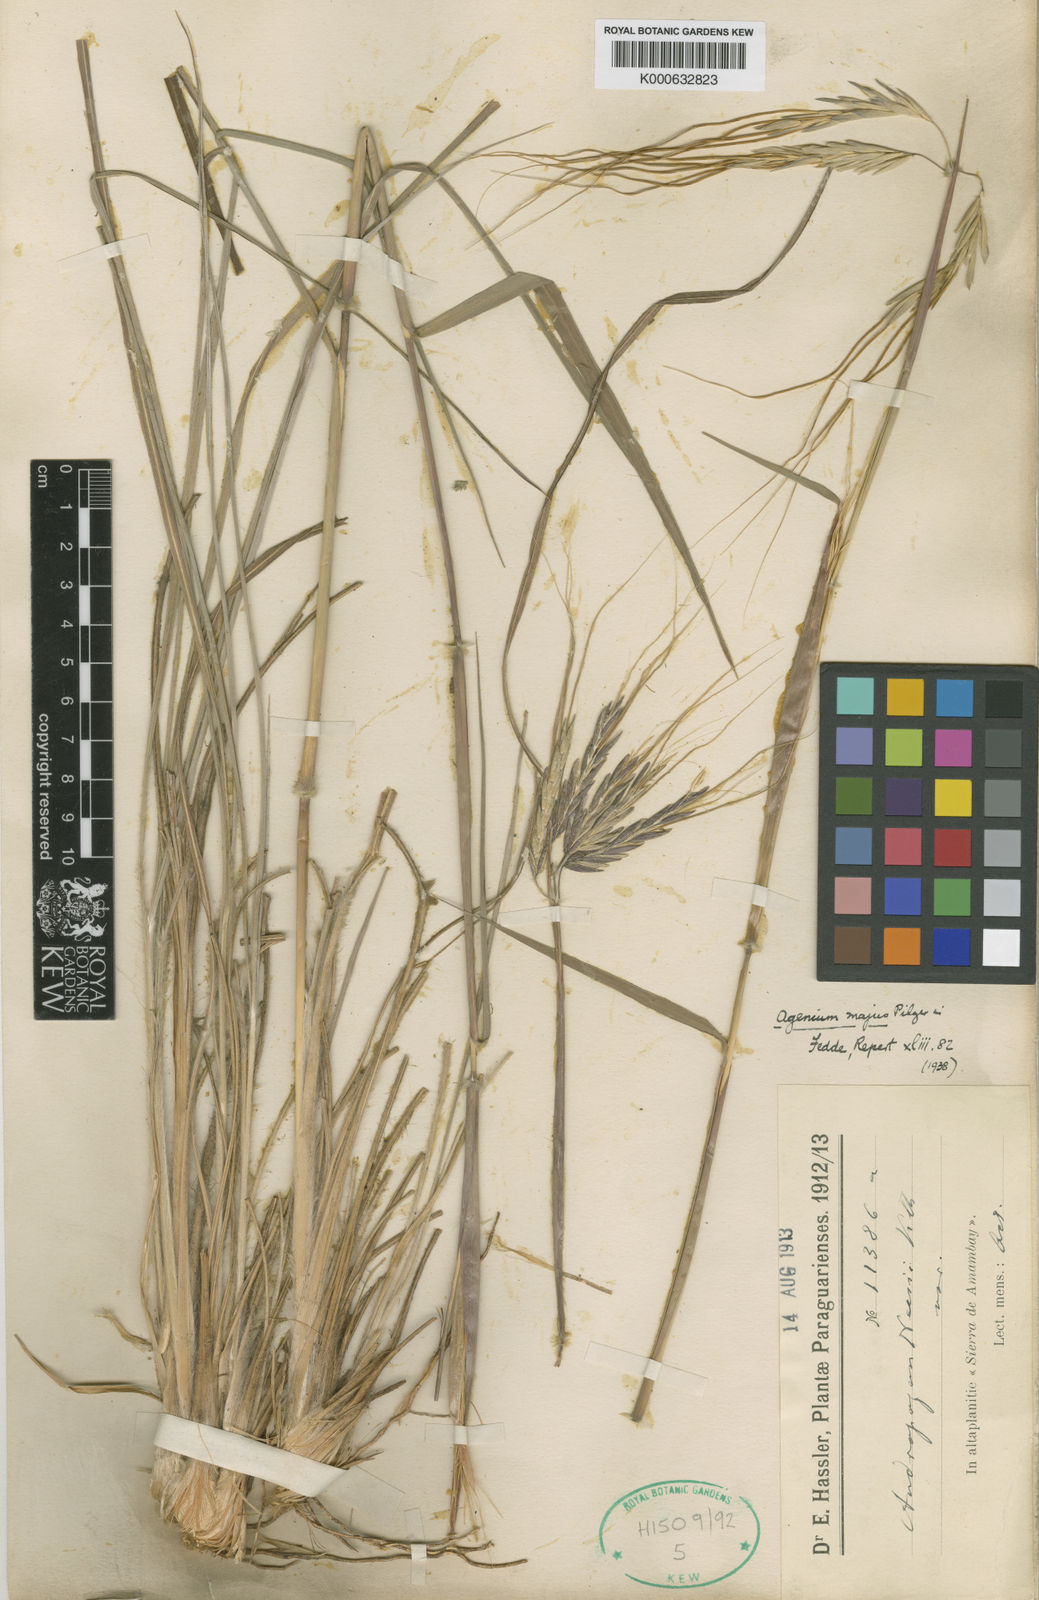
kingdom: Plantae
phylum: Tracheophyta
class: Liliopsida
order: Poales
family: Poaceae
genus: Agenium
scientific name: Agenium majus
